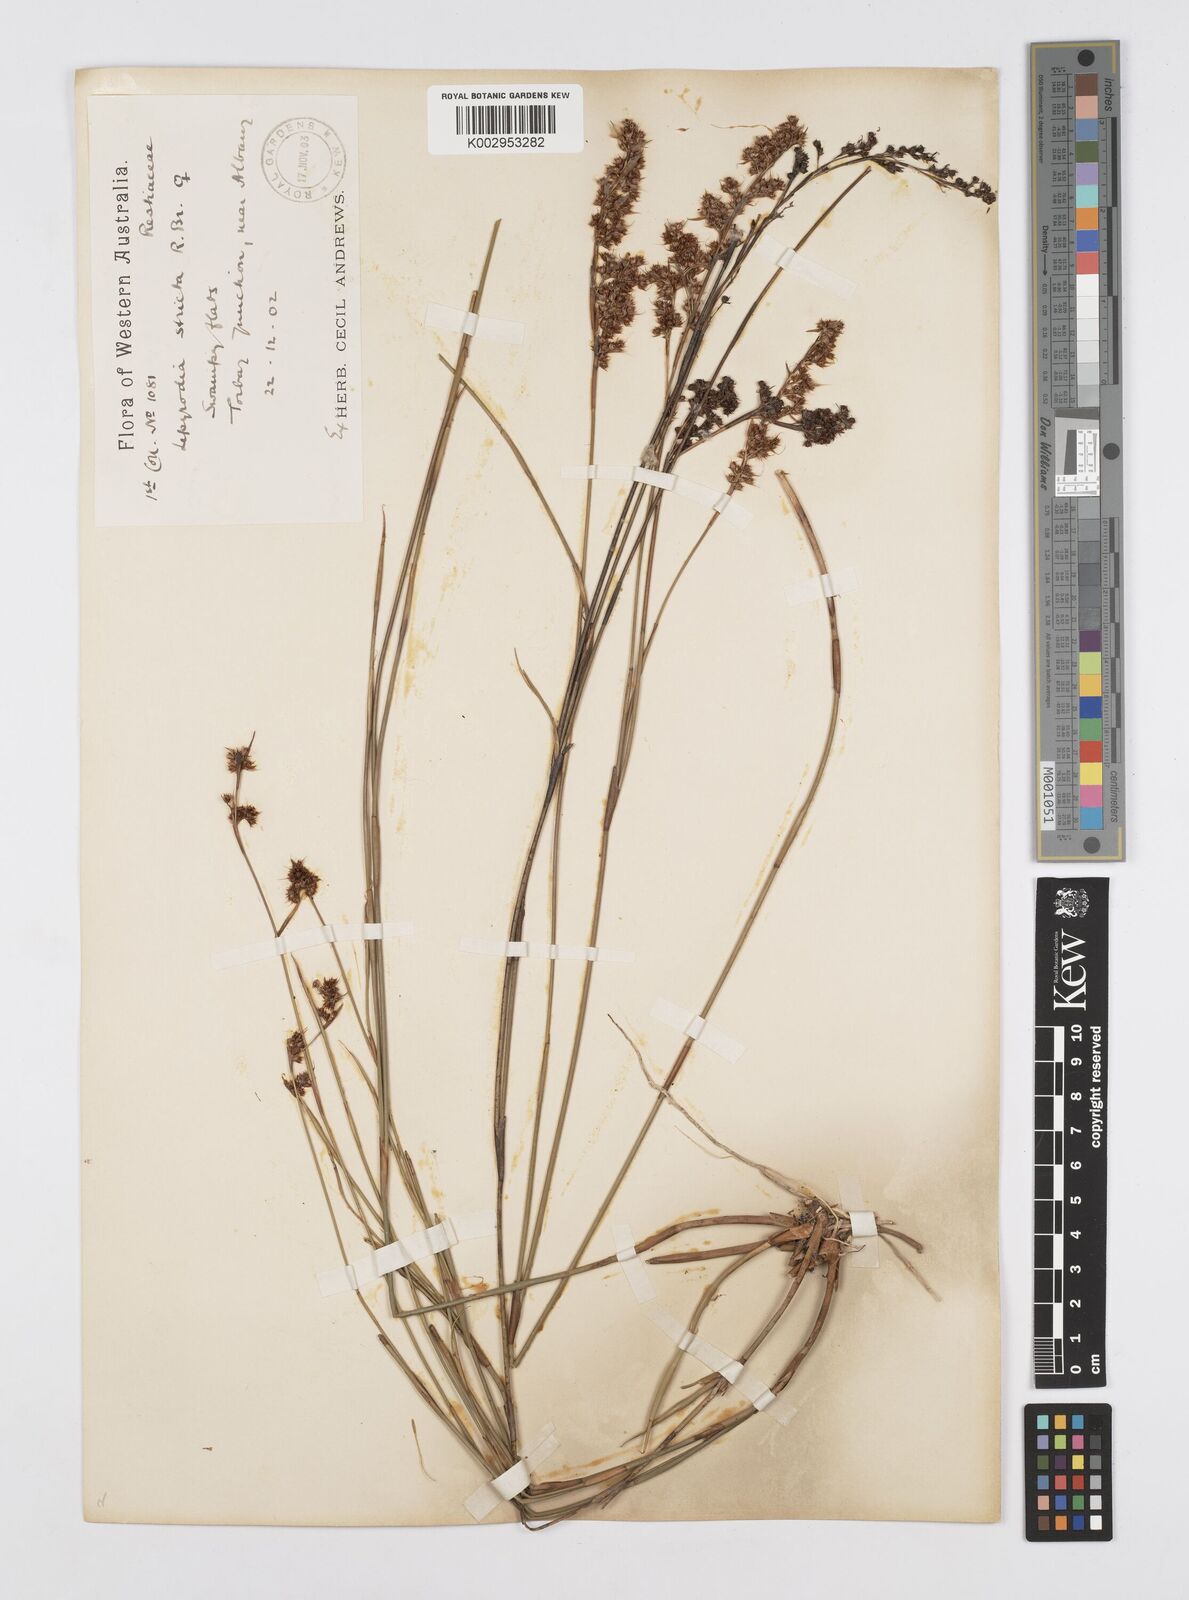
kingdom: Plantae
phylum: Tracheophyta
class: Liliopsida
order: Poales
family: Restionaceae
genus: Sporadanthus
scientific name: Sporadanthus strictus
